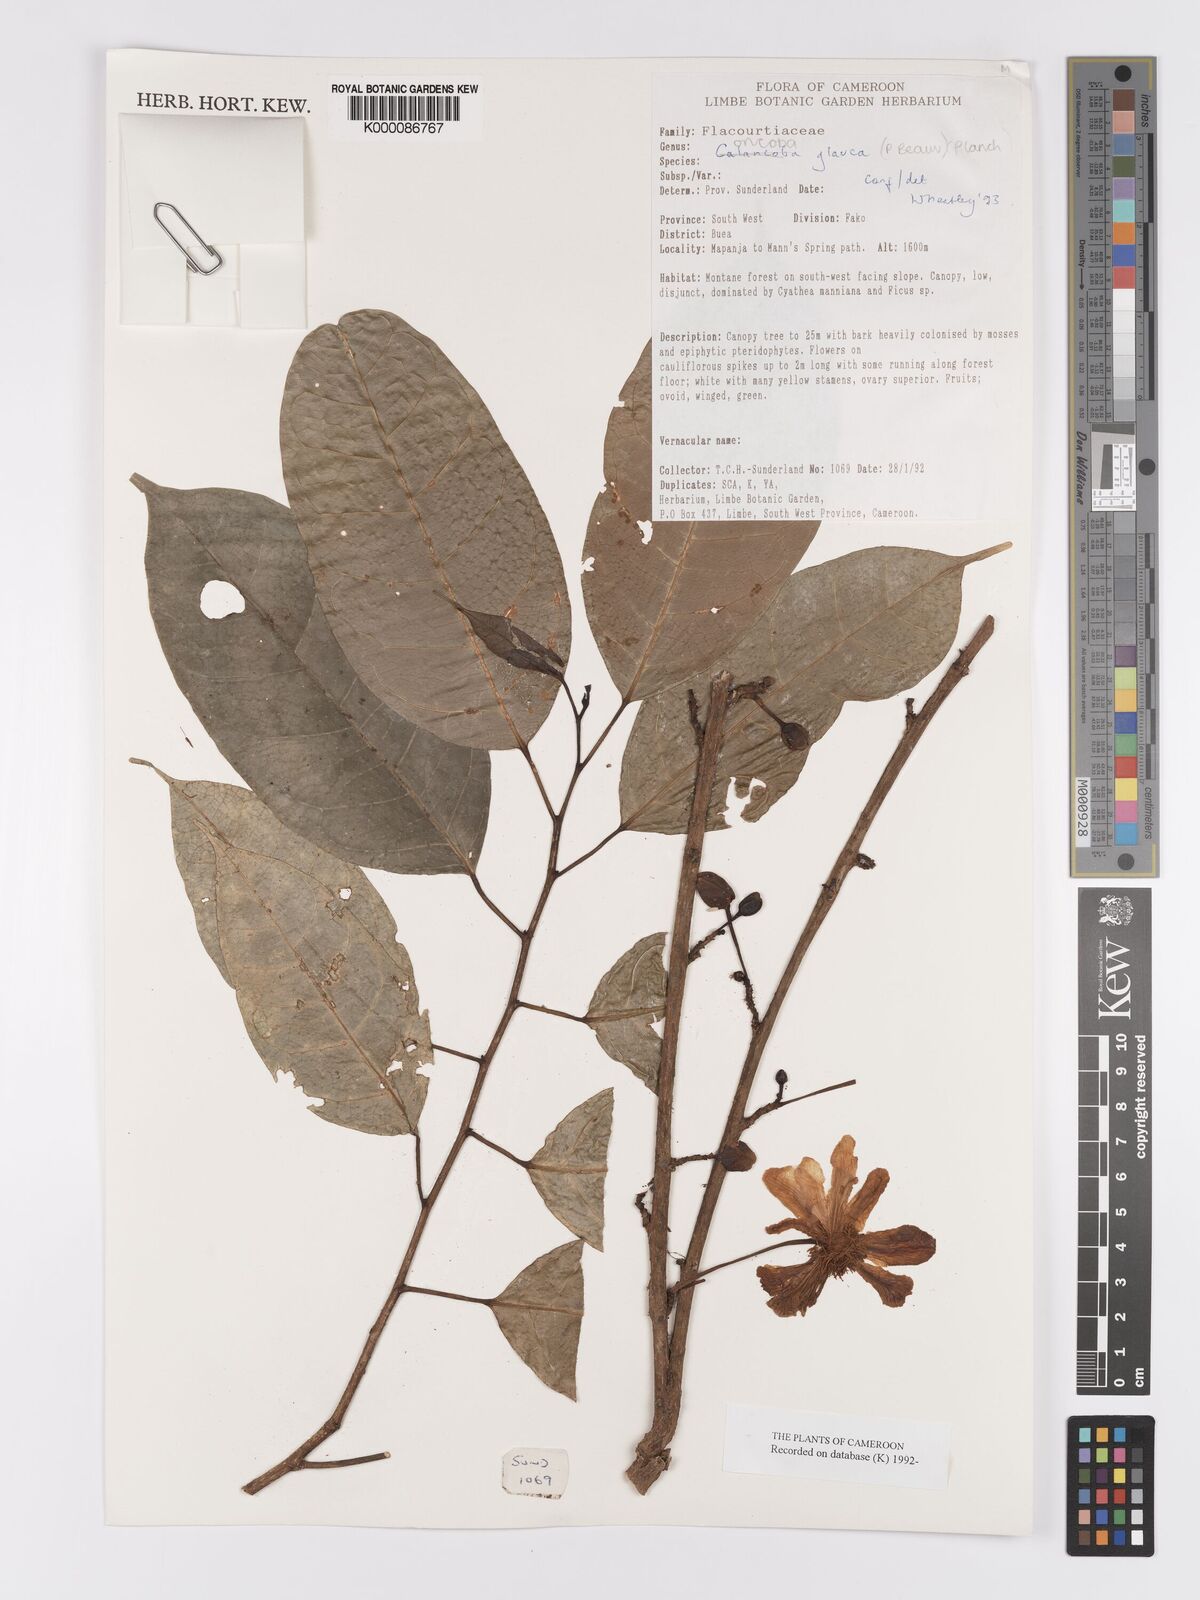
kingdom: Plantae
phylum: Tracheophyta
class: Magnoliopsida
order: Malpighiales
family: Achariaceae
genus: Caloncoba
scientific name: Caloncoba glauca
